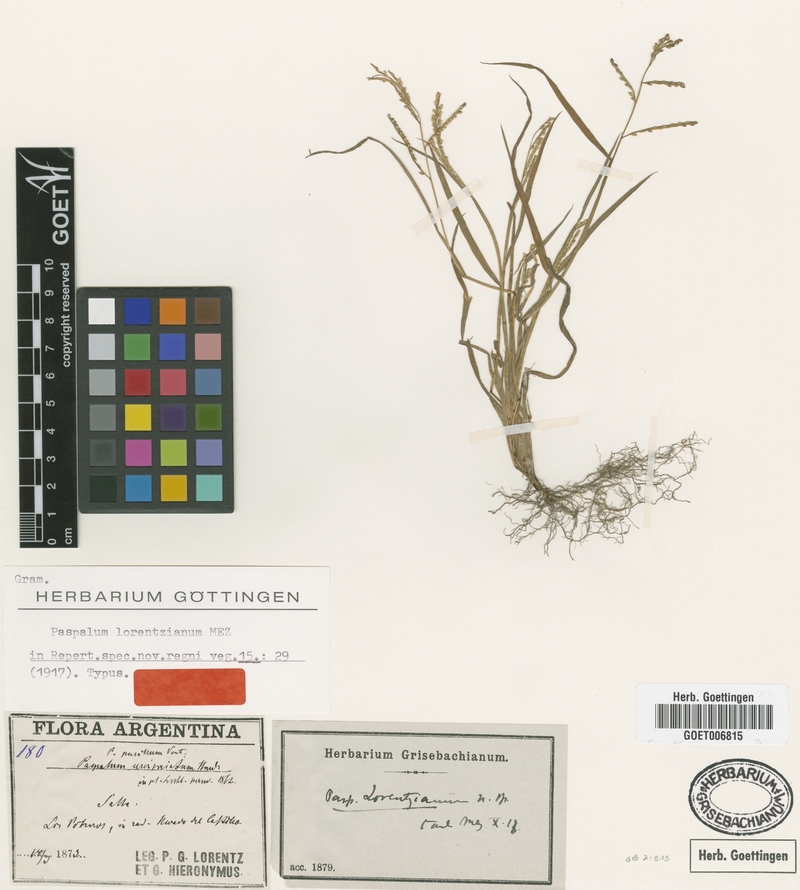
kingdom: Plantae
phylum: Tracheophyta
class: Liliopsida
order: Poales
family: Poaceae
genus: Paspalum
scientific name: Paspalum pygmaeum
